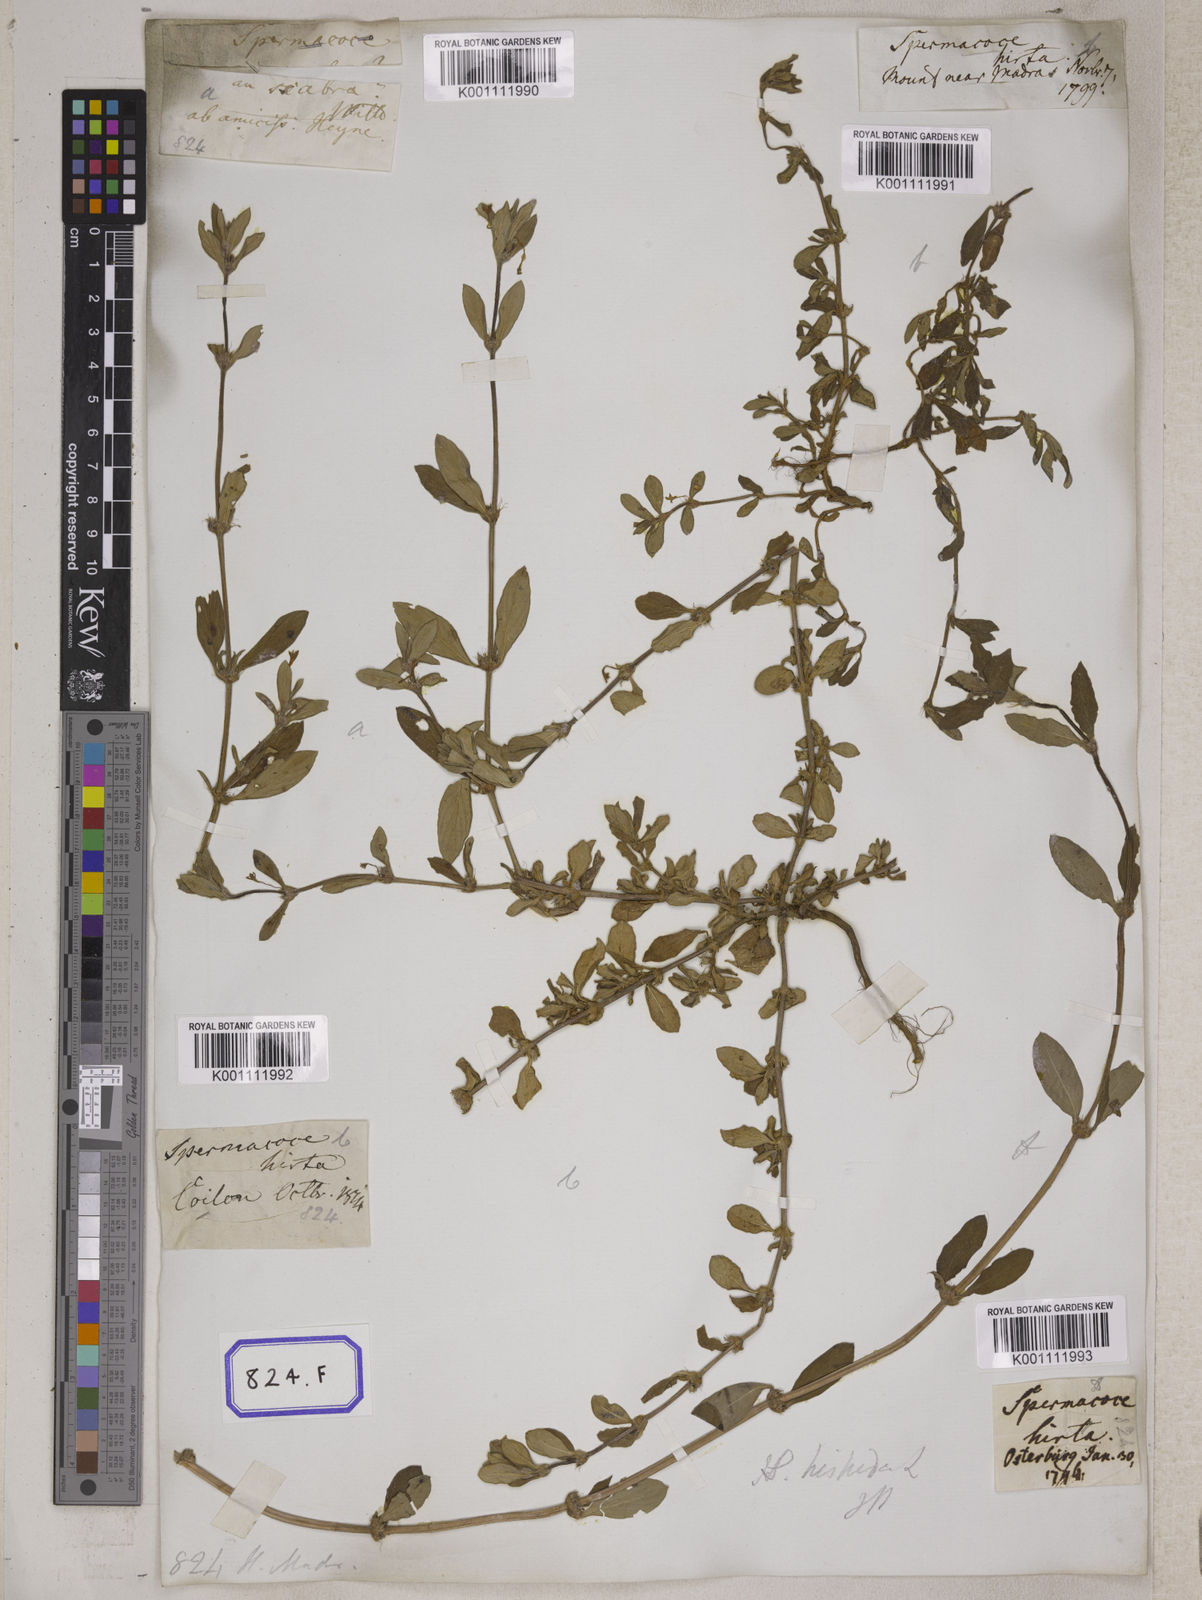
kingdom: Plantae
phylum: Tracheophyta
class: Magnoliopsida
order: Gentianales
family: Rubiaceae
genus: Spermacoce
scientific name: Spermacoce
